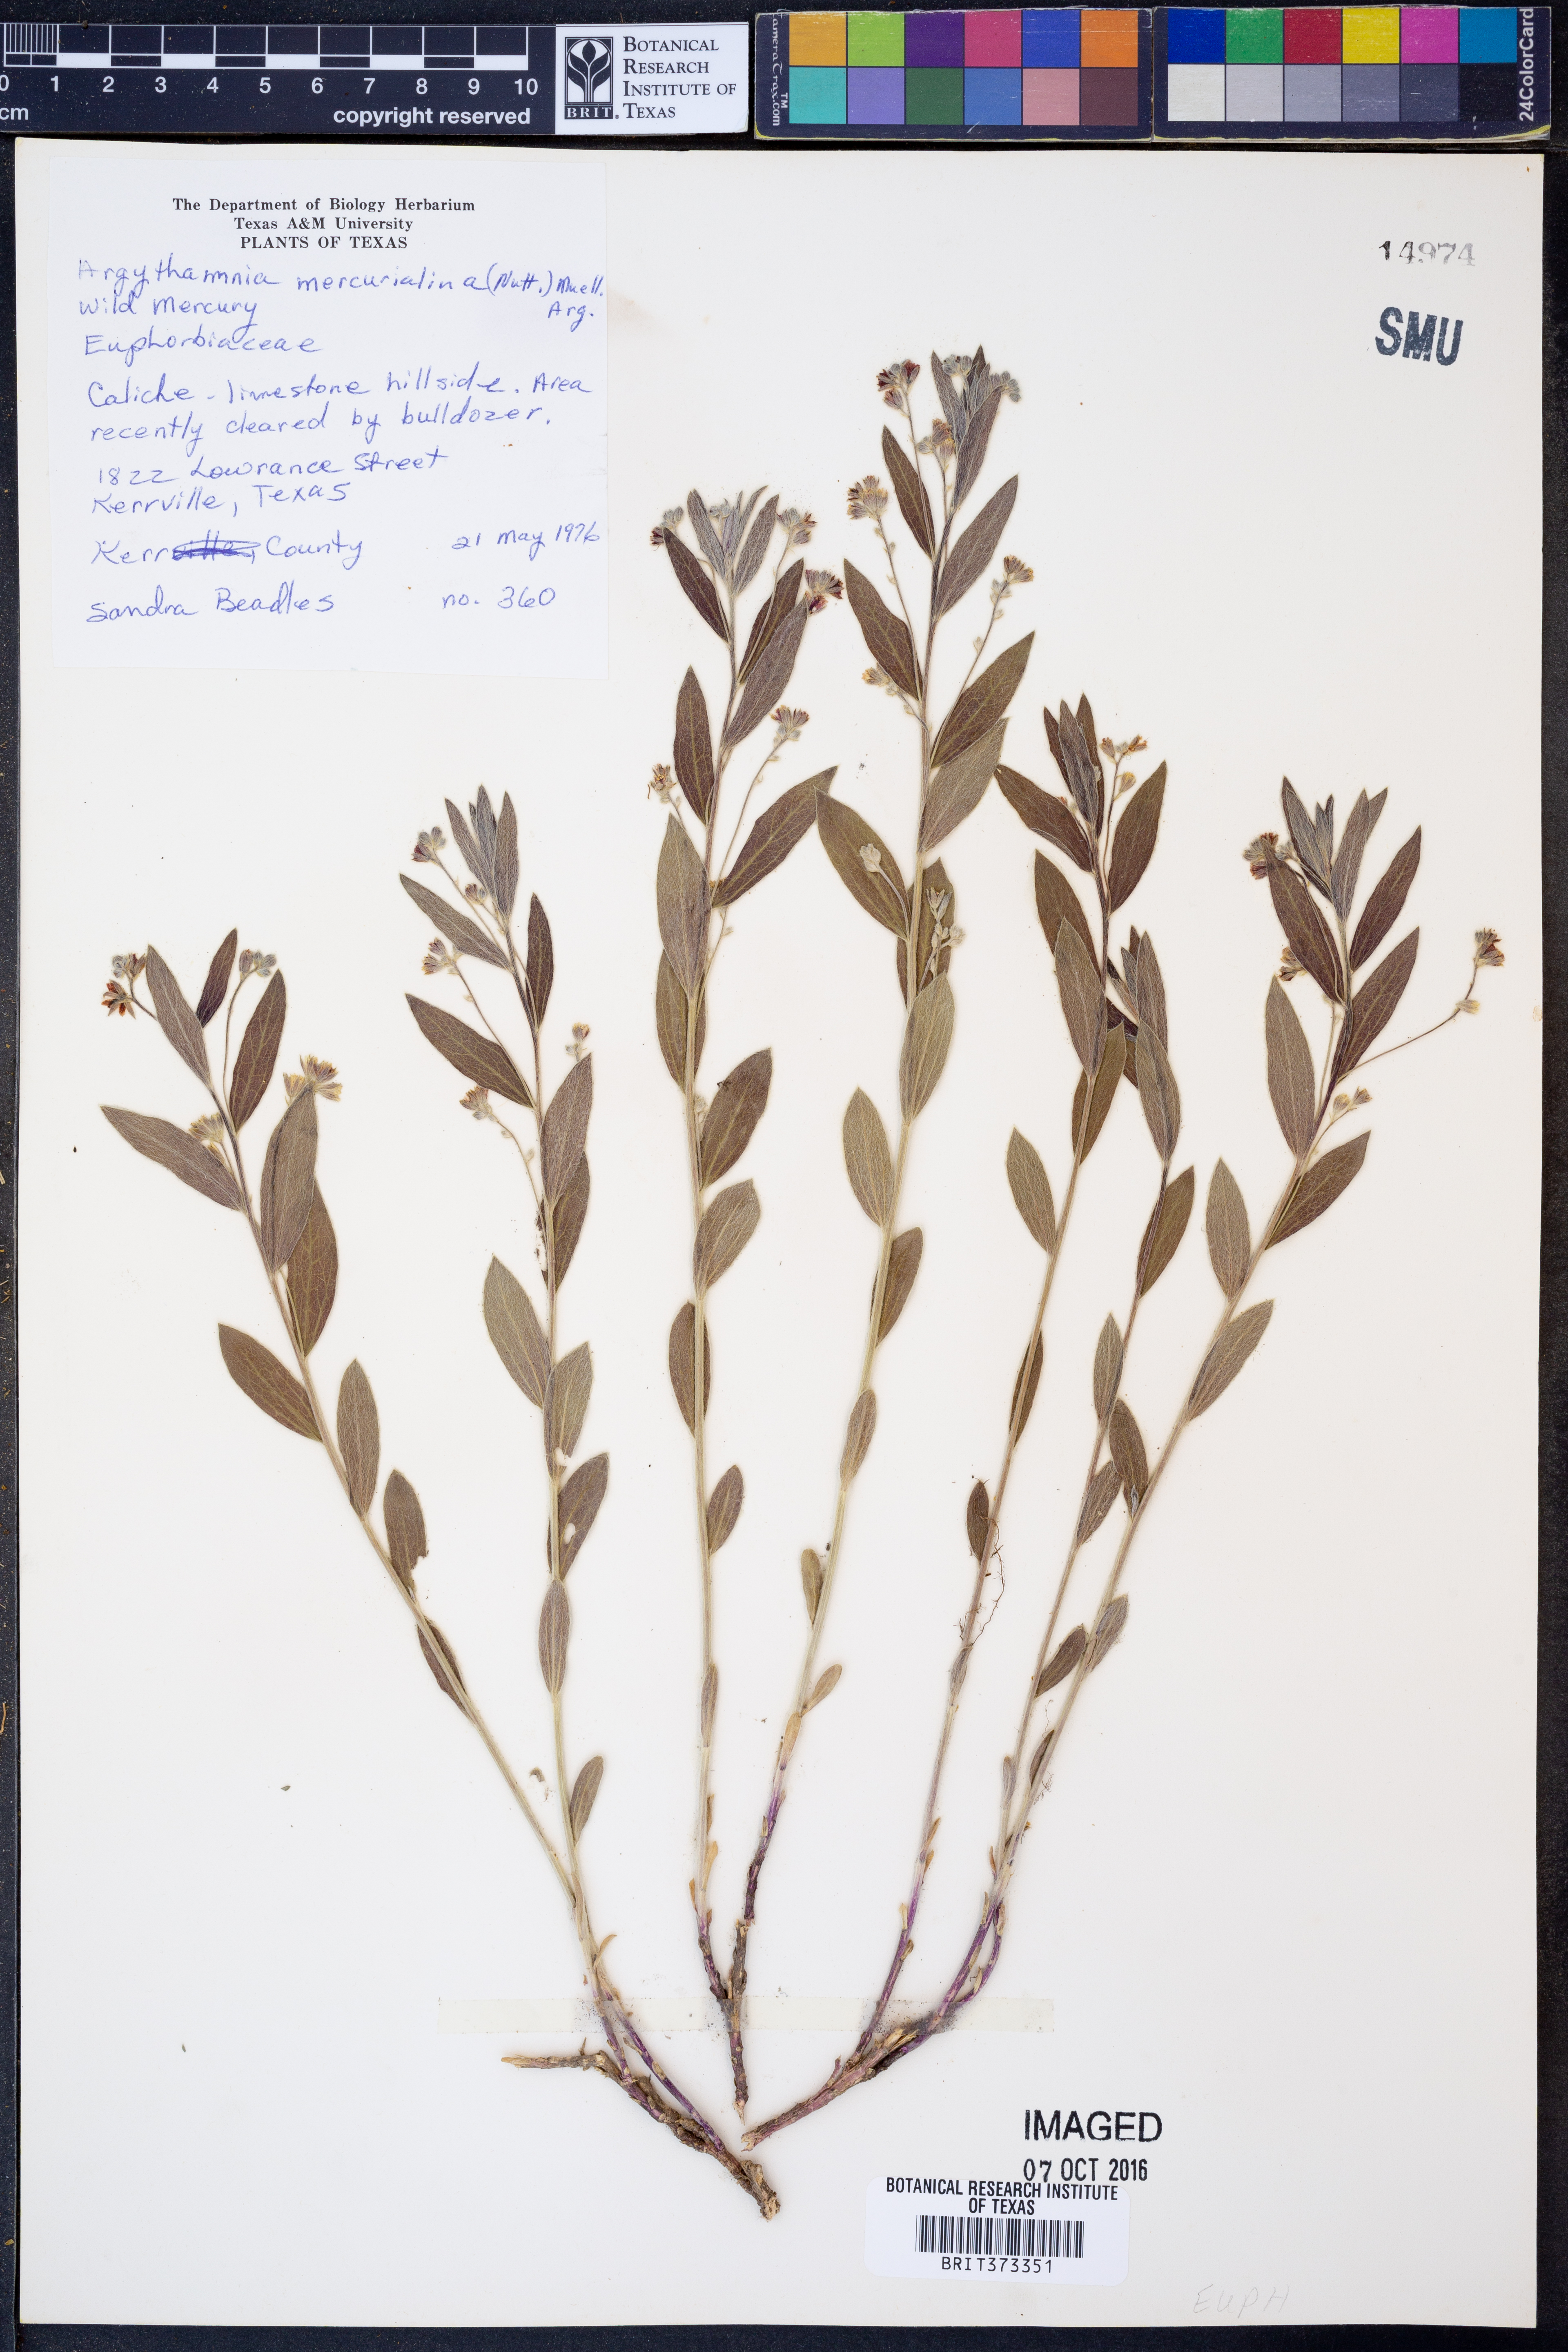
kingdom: Plantae
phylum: Tracheophyta
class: Magnoliopsida
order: Malpighiales
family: Euphorbiaceae
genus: Ditaxis
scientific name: Ditaxis mercurialina
